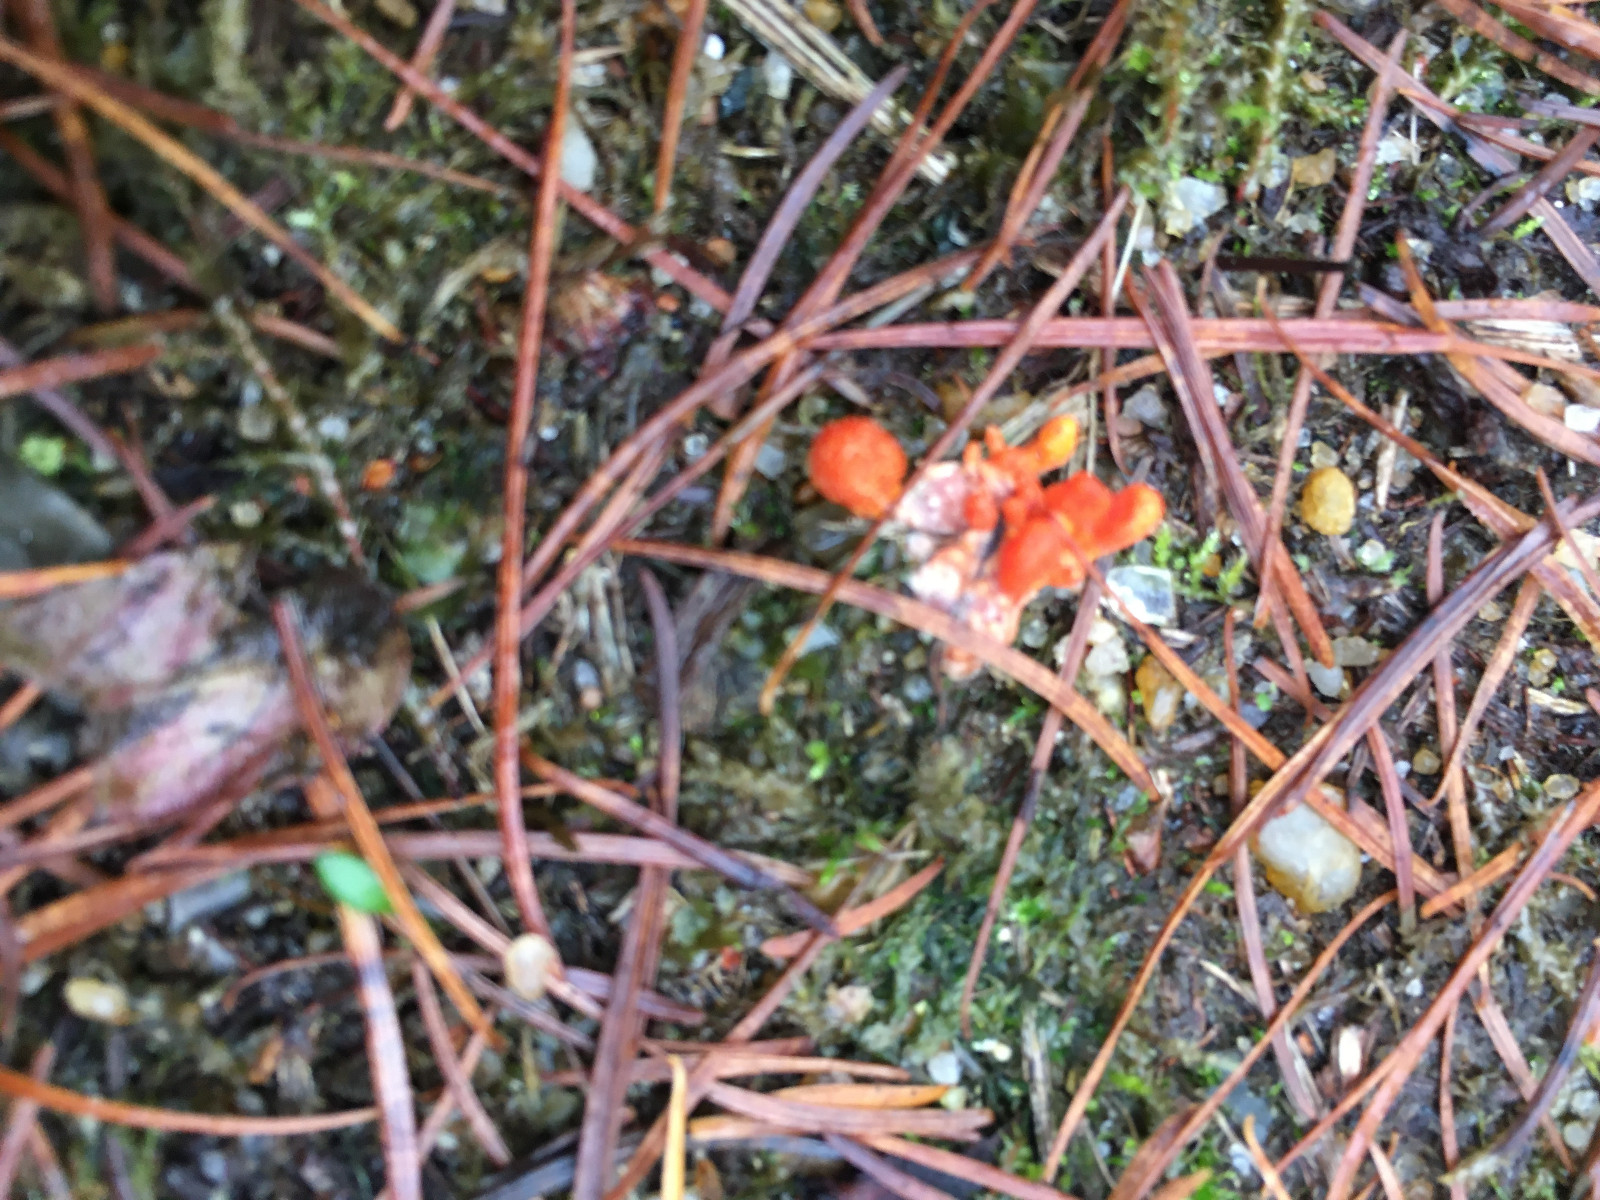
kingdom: Fungi
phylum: Ascomycota
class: Sordariomycetes
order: Hypocreales
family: Cordycipitaceae
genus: Cordyceps
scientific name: Cordyceps militaris
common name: puppe-snyltekølle
